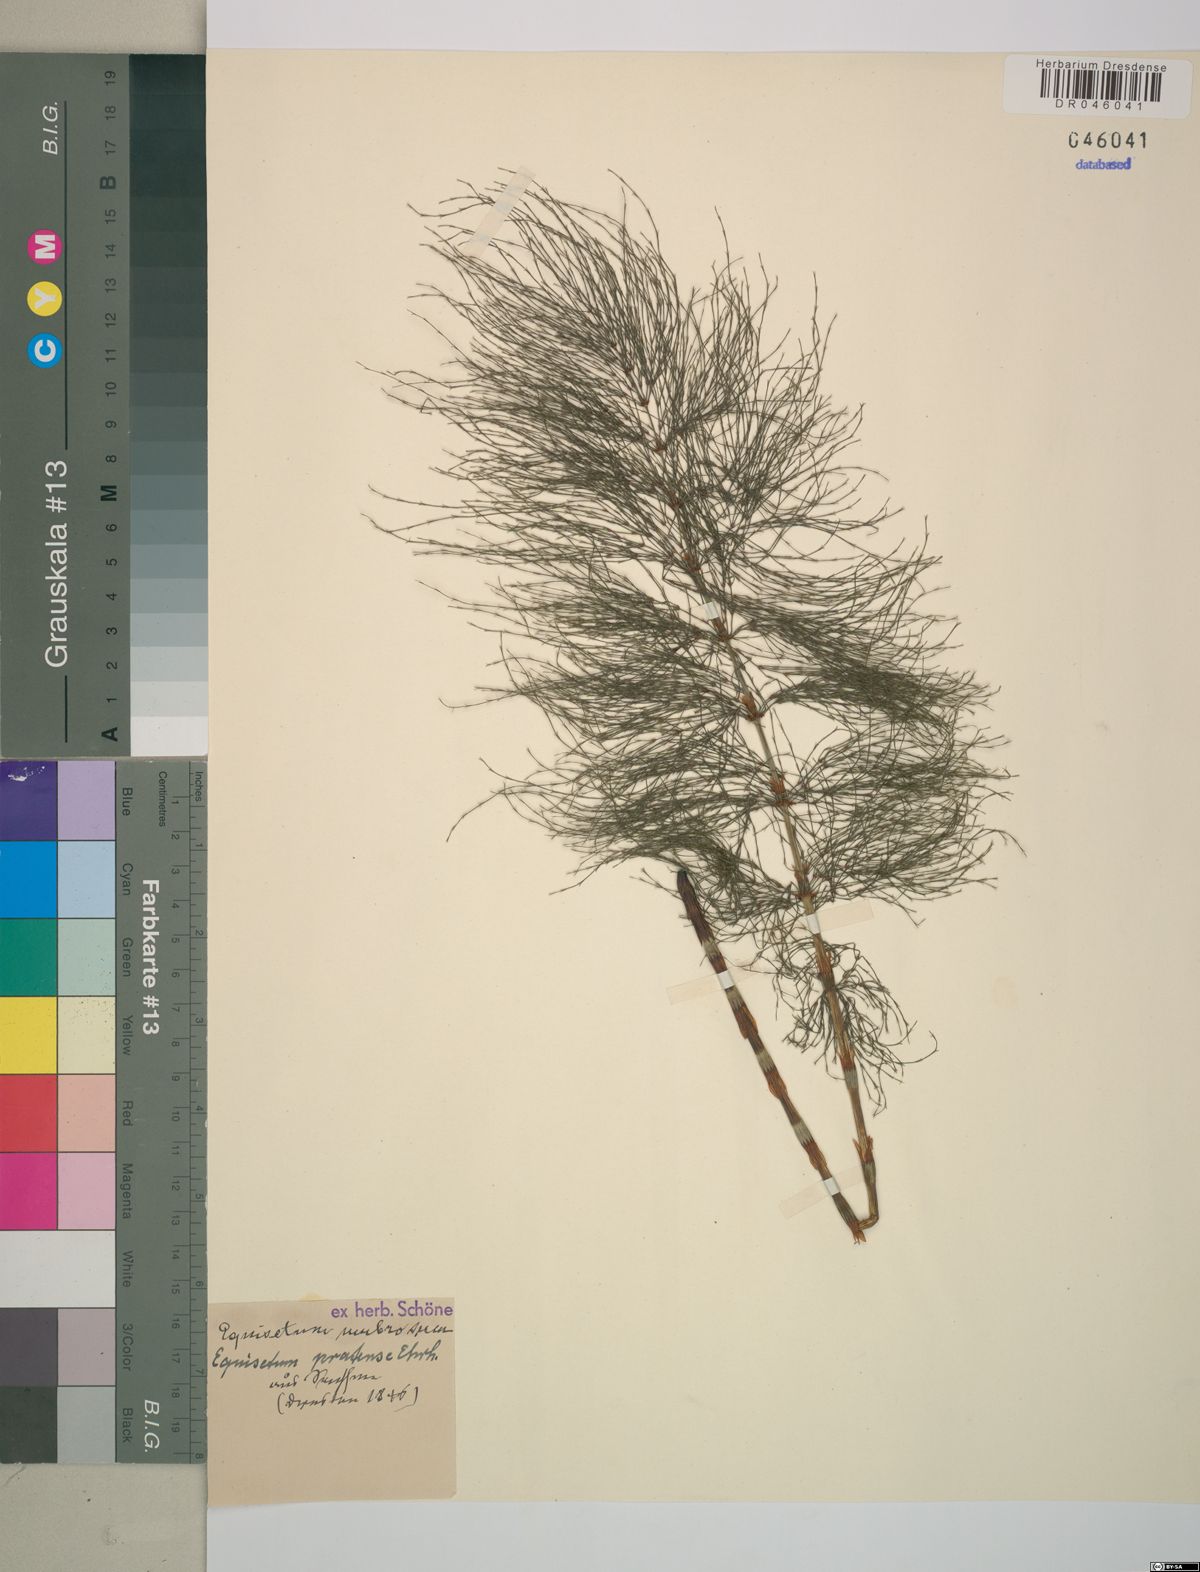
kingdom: Plantae
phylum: Tracheophyta
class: Polypodiopsida
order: Equisetales
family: Equisetaceae
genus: Equisetum
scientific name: Equisetum pratense
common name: Meadow horsetail
